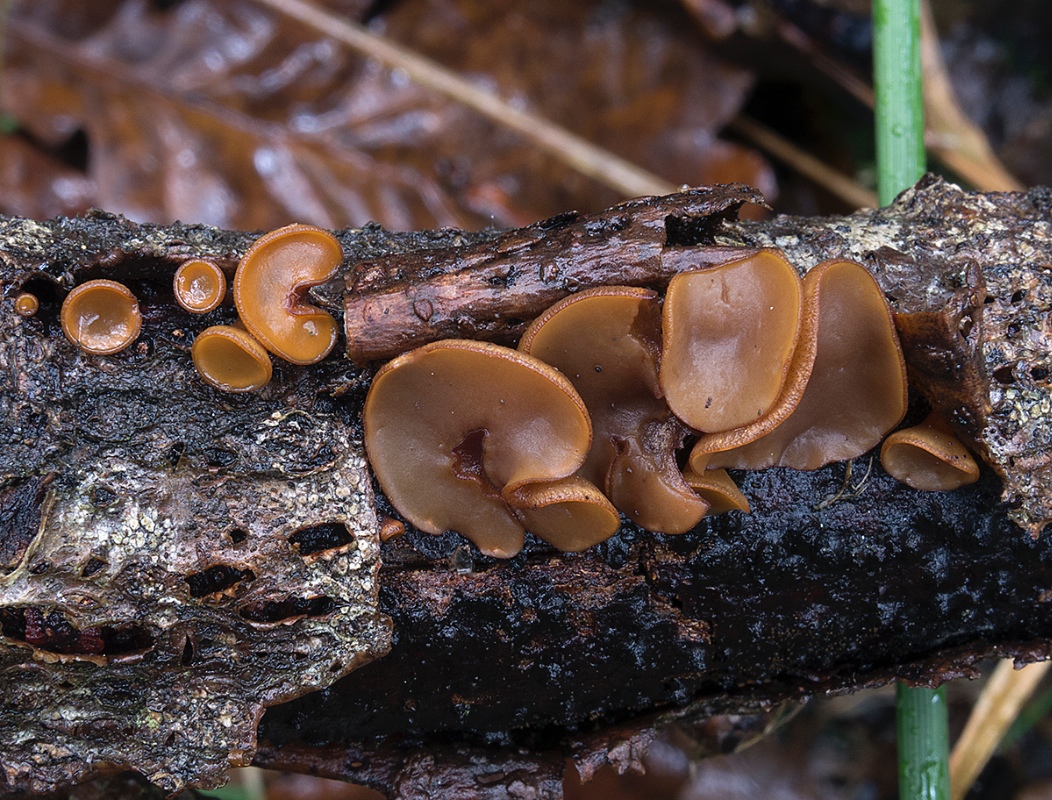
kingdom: Fungi
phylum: Ascomycota
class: Leotiomycetes
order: Helotiales
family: Rutstroemiaceae
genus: Rutstroemia
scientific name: Rutstroemia firma
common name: gren-brunskive
